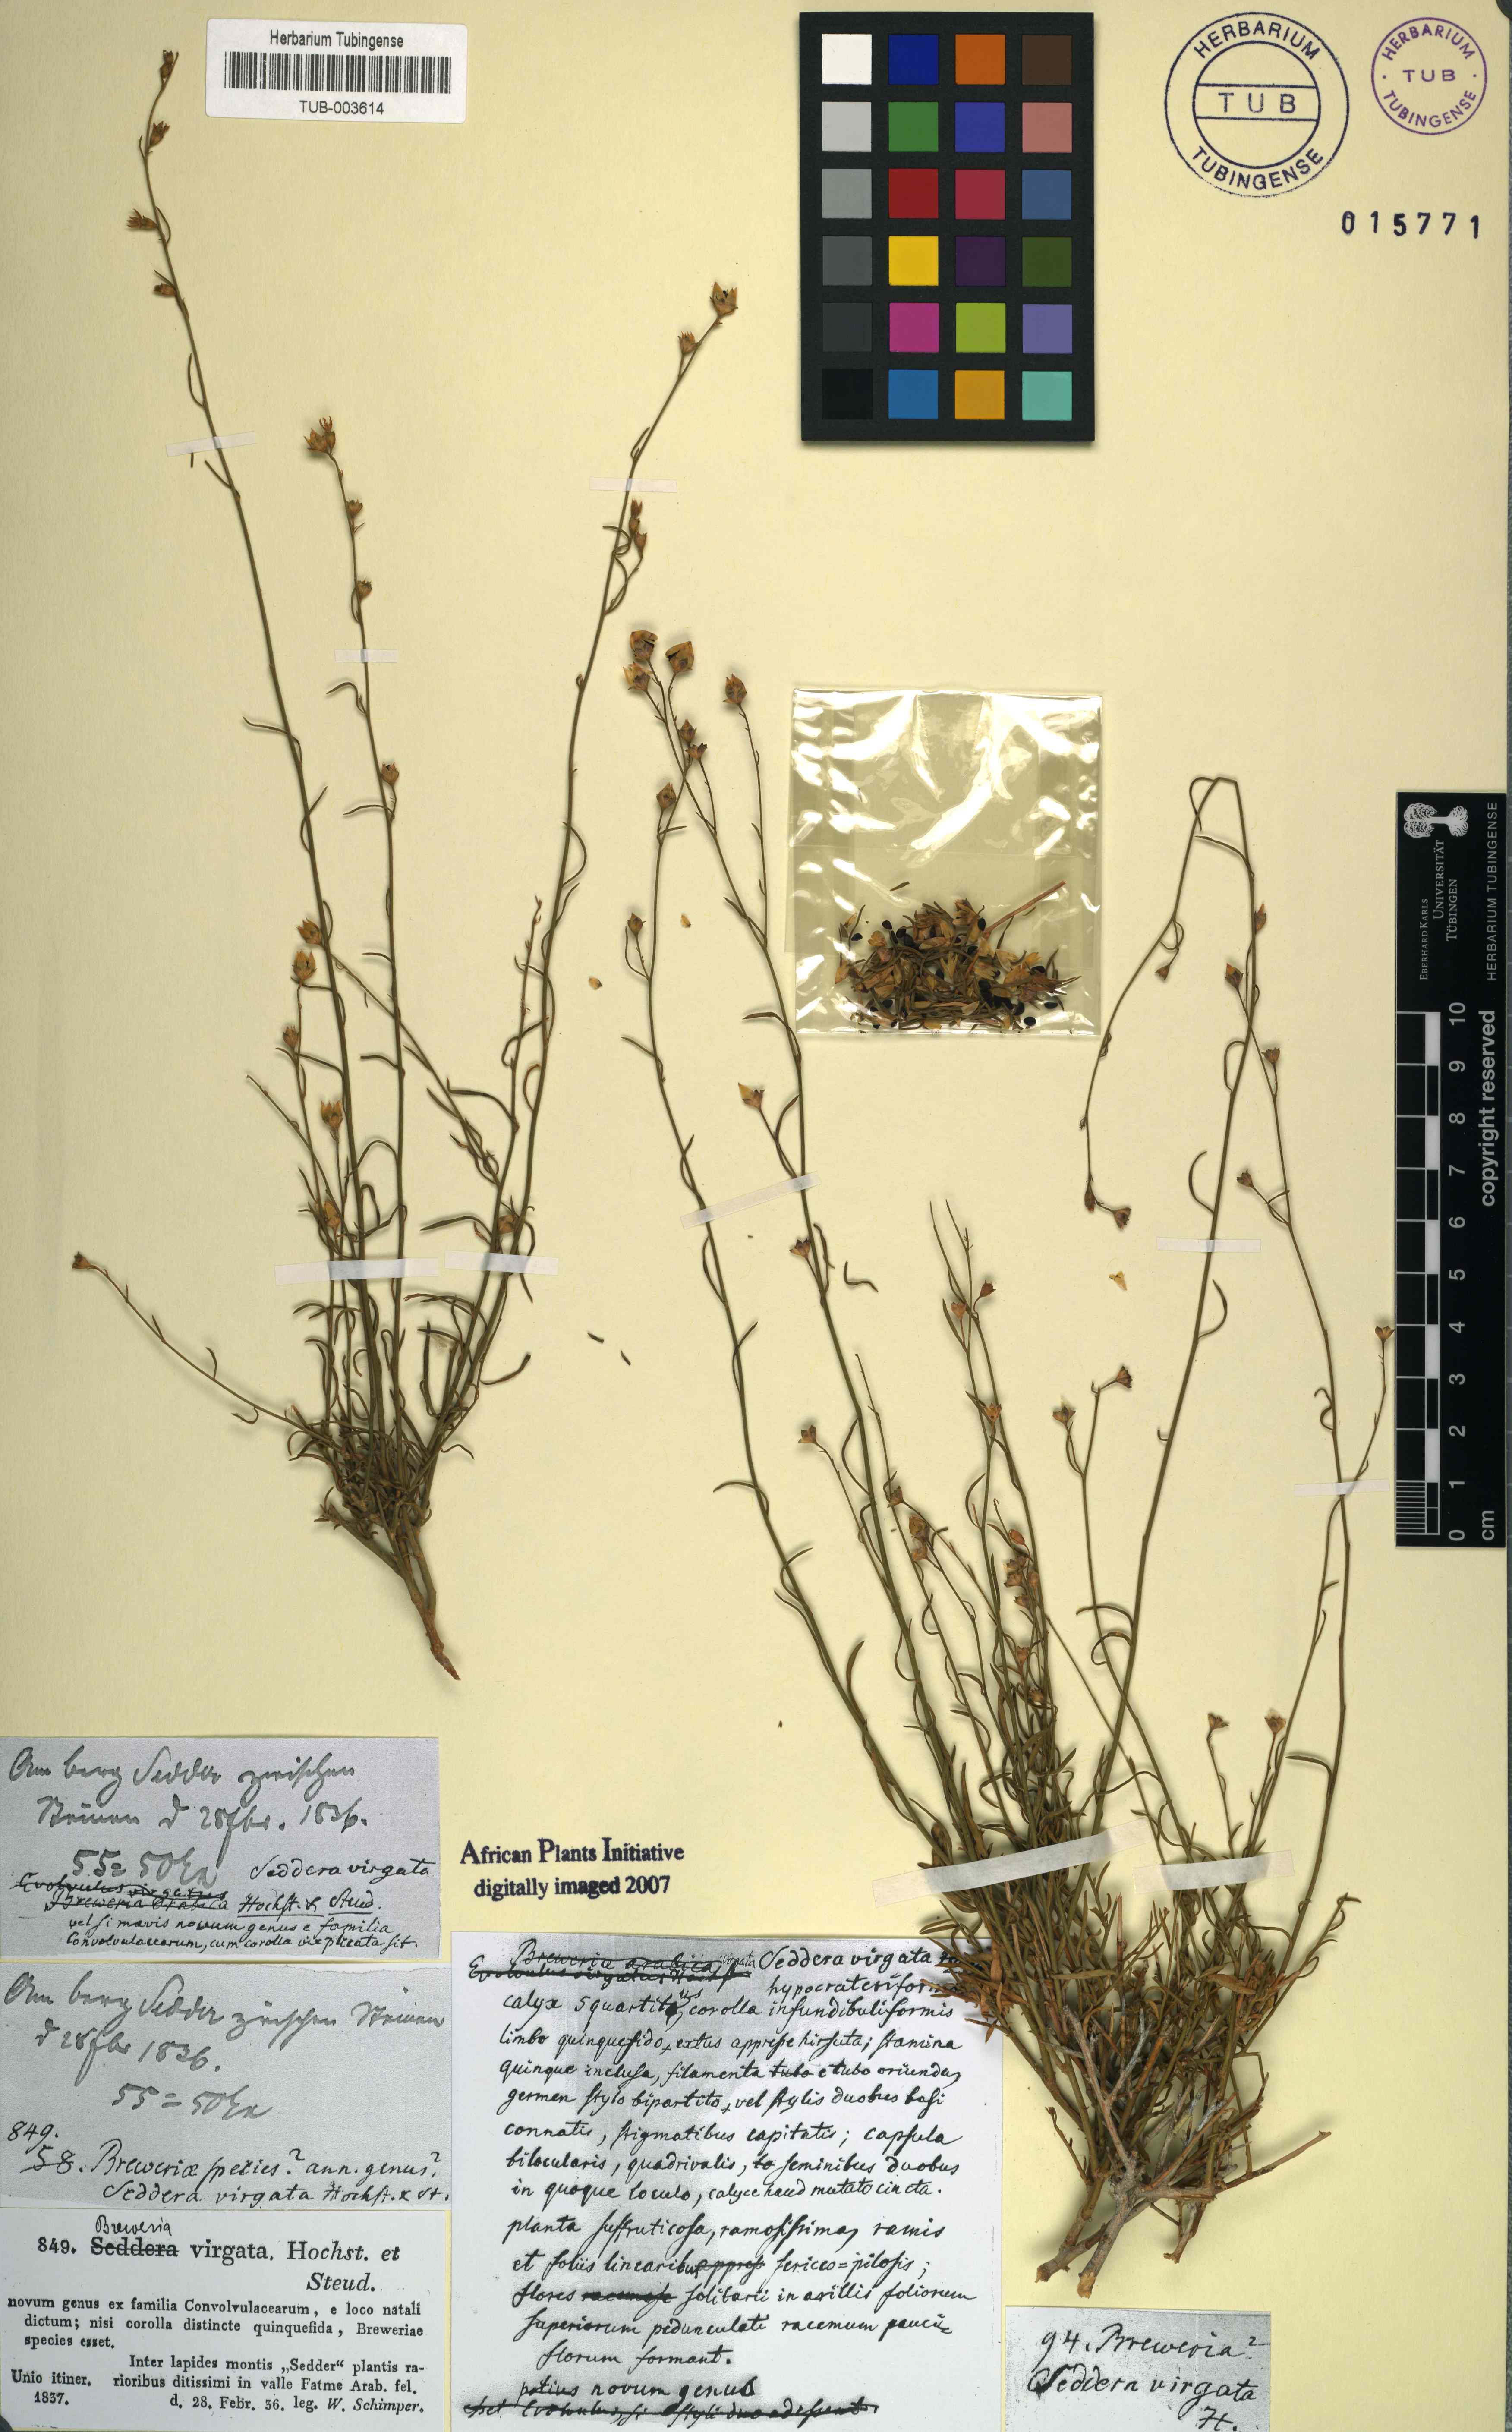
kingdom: Plantae
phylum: Tracheophyta
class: Magnoliopsida
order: Solanales
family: Convolvulaceae
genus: Seddera
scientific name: Seddera virgata
